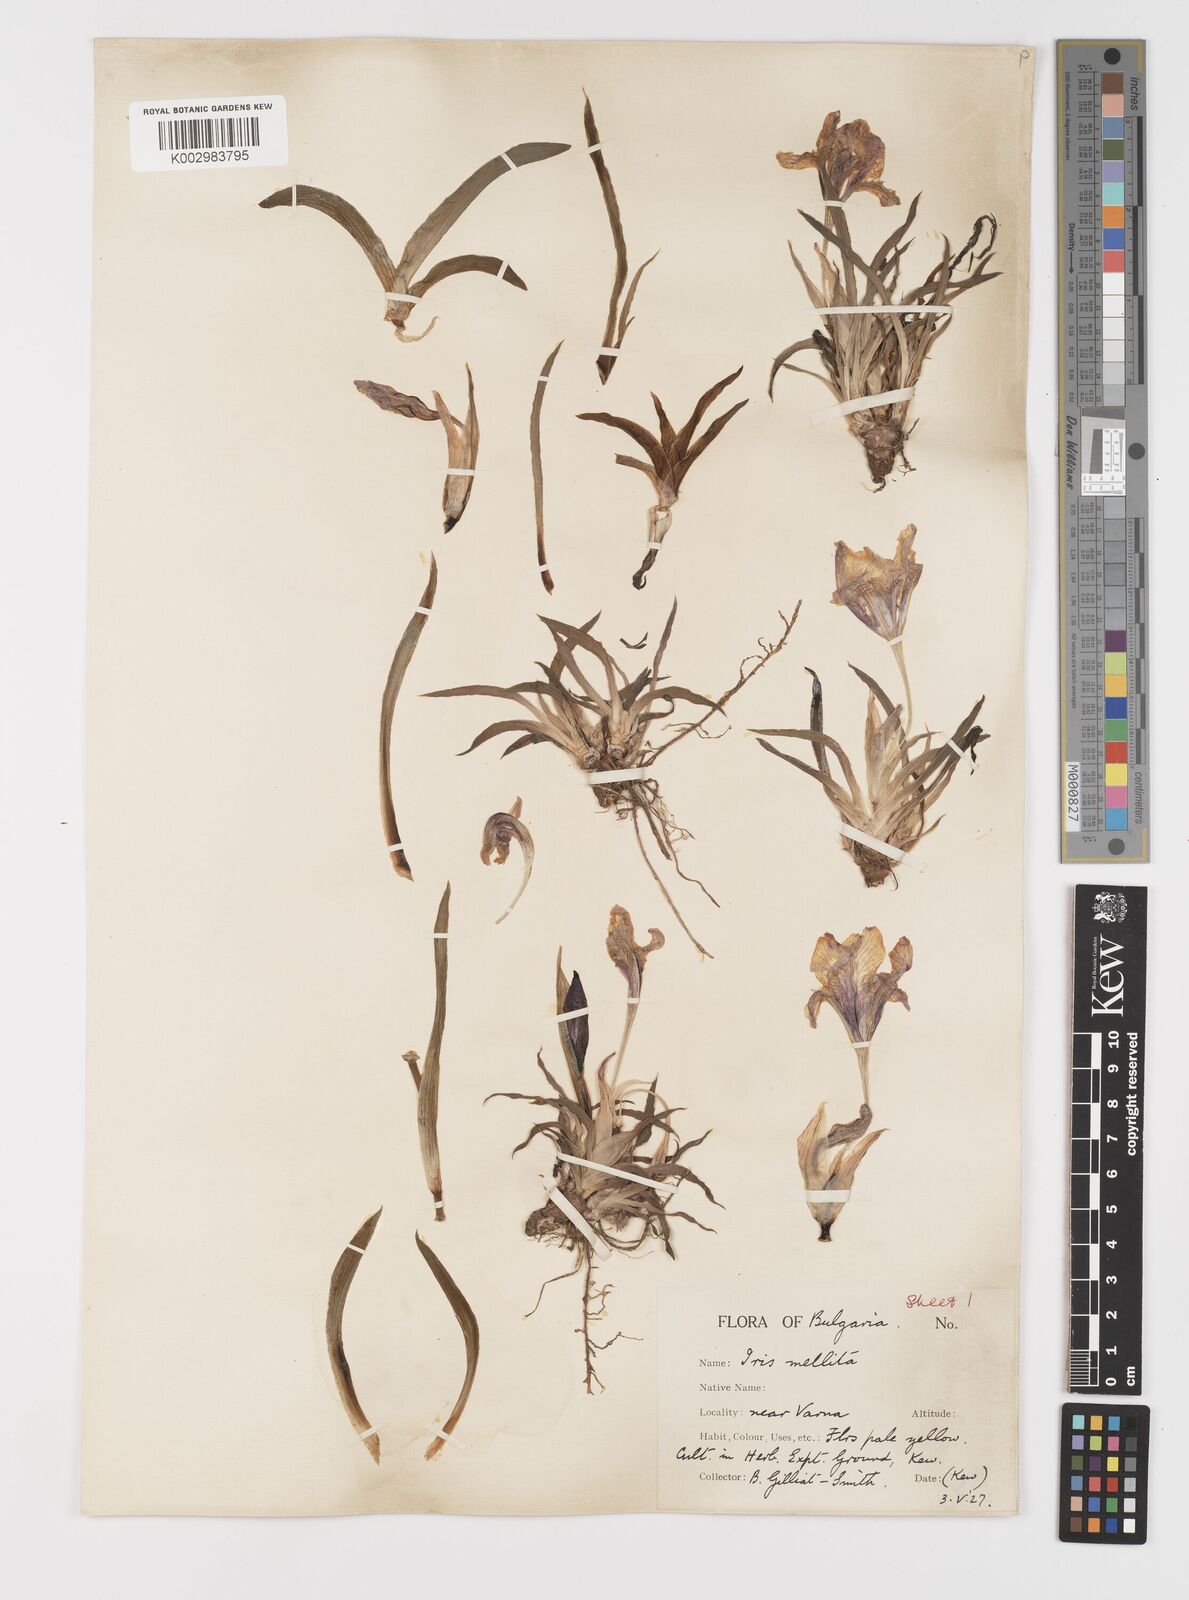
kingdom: Plantae
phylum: Tracheophyta
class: Liliopsida
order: Asparagales
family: Iridaceae
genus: Iris
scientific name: Iris suaveolens
